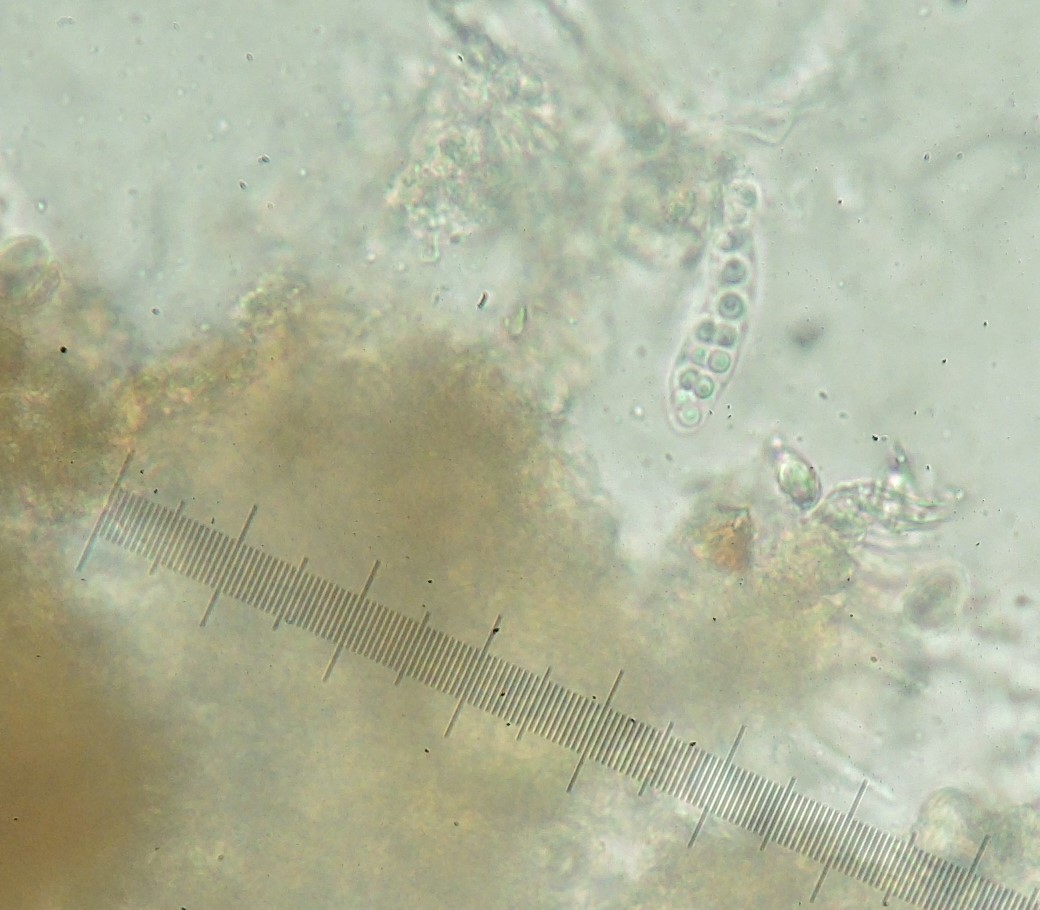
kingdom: Fungi
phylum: Ascomycota
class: Sordariomycetes
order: Hypocreales
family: Niessliaceae
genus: Trichosphaerella
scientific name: Trichosphaerella decipiens
